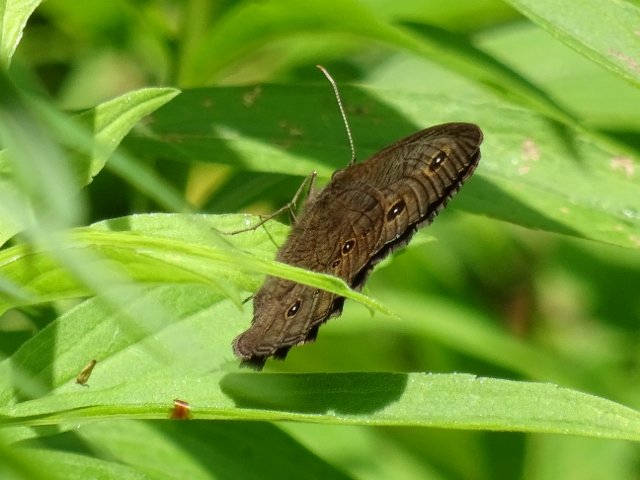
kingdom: Animalia
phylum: Arthropoda
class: Insecta
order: Lepidoptera
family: Nymphalidae
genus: Cercyonis
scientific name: Cercyonis pegala
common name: Common Wood-Nymph
